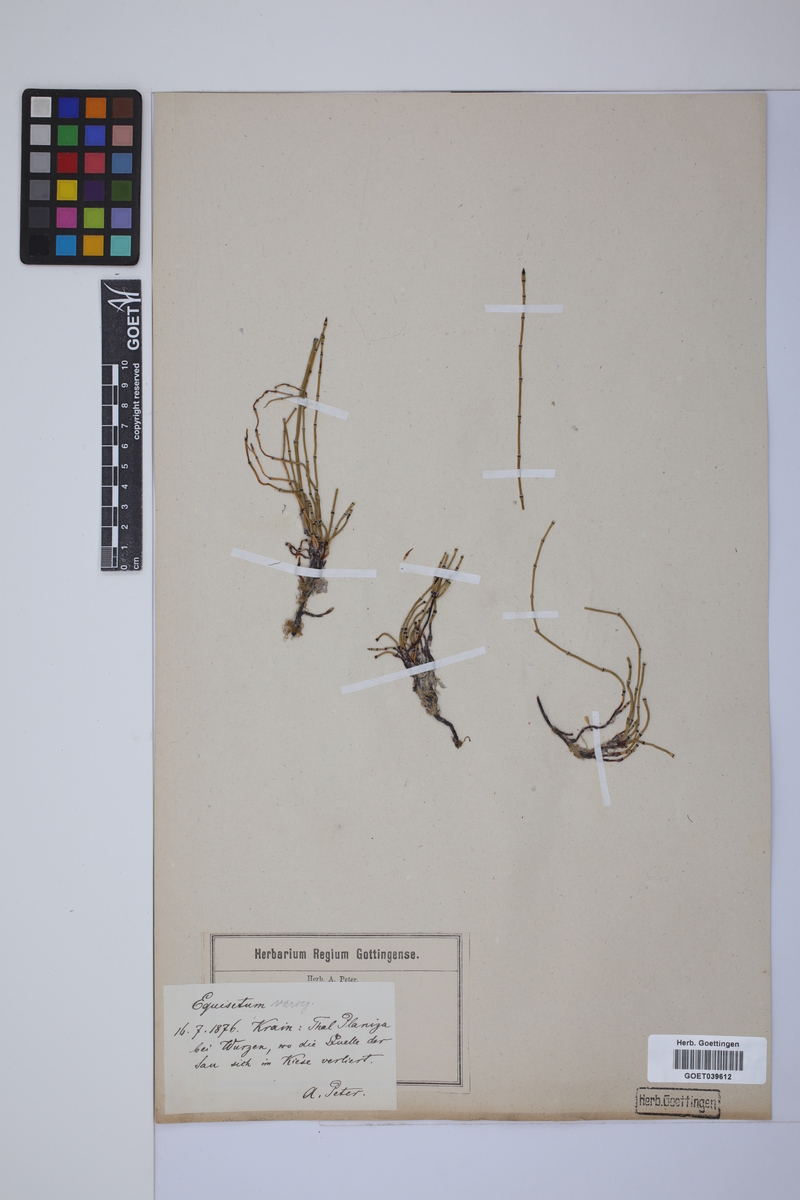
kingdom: Plantae
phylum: Tracheophyta
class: Polypodiopsida
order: Equisetales
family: Equisetaceae
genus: Equisetum
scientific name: Equisetum variegatum
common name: Variegated horsetail
